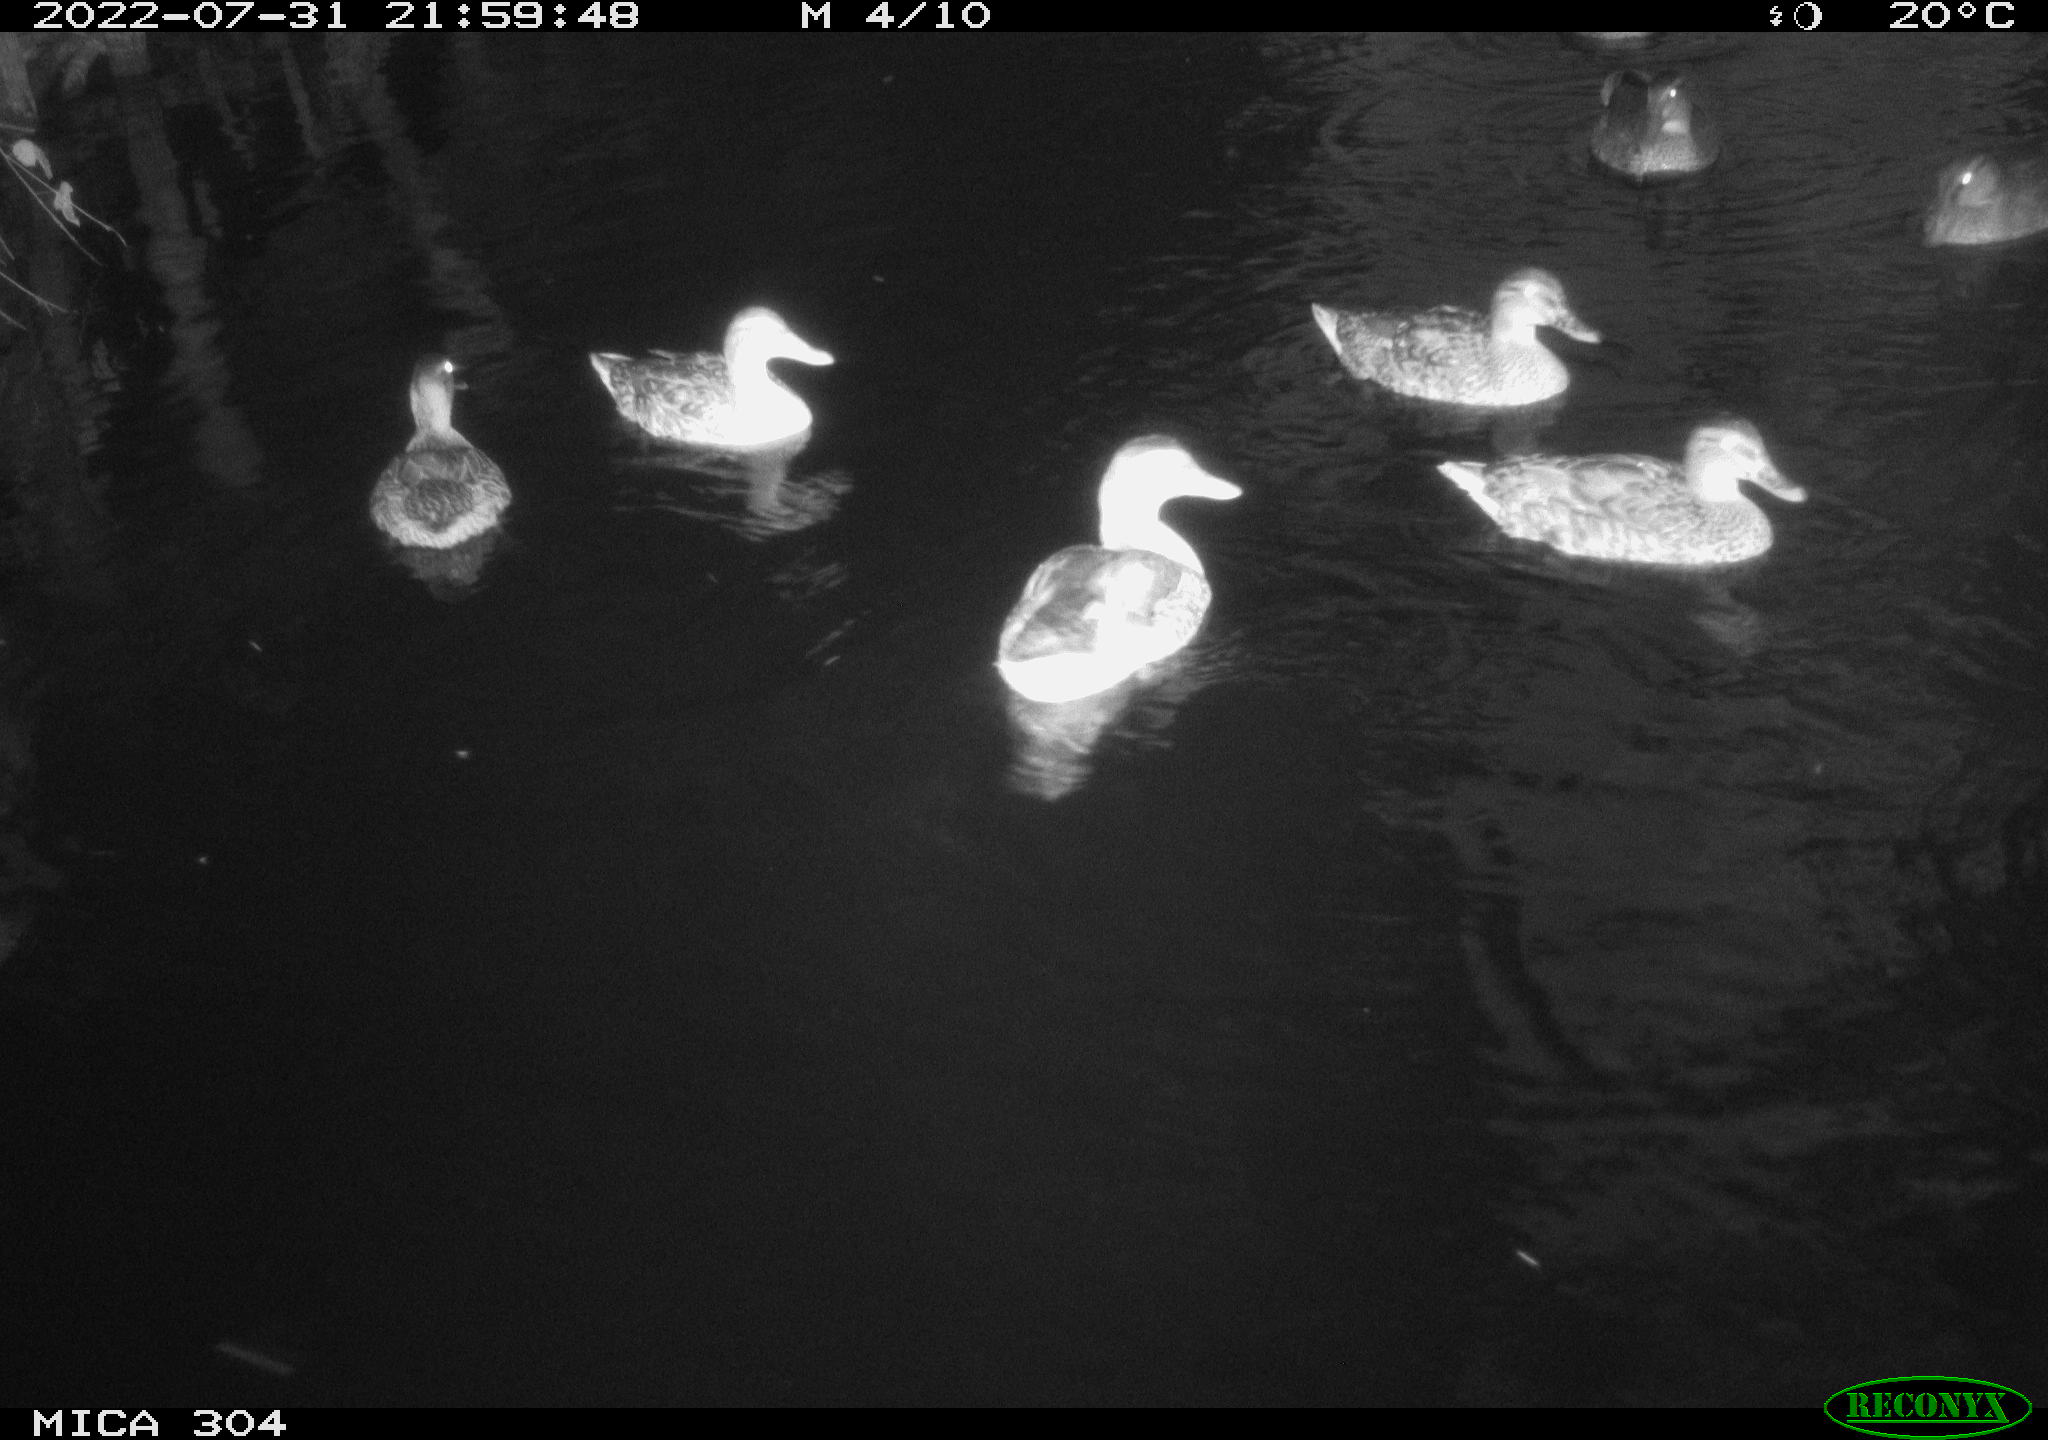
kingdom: Animalia
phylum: Chordata
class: Aves
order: Anseriformes
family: Anatidae
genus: Mareca
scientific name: Mareca strepera
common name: Gadwall
